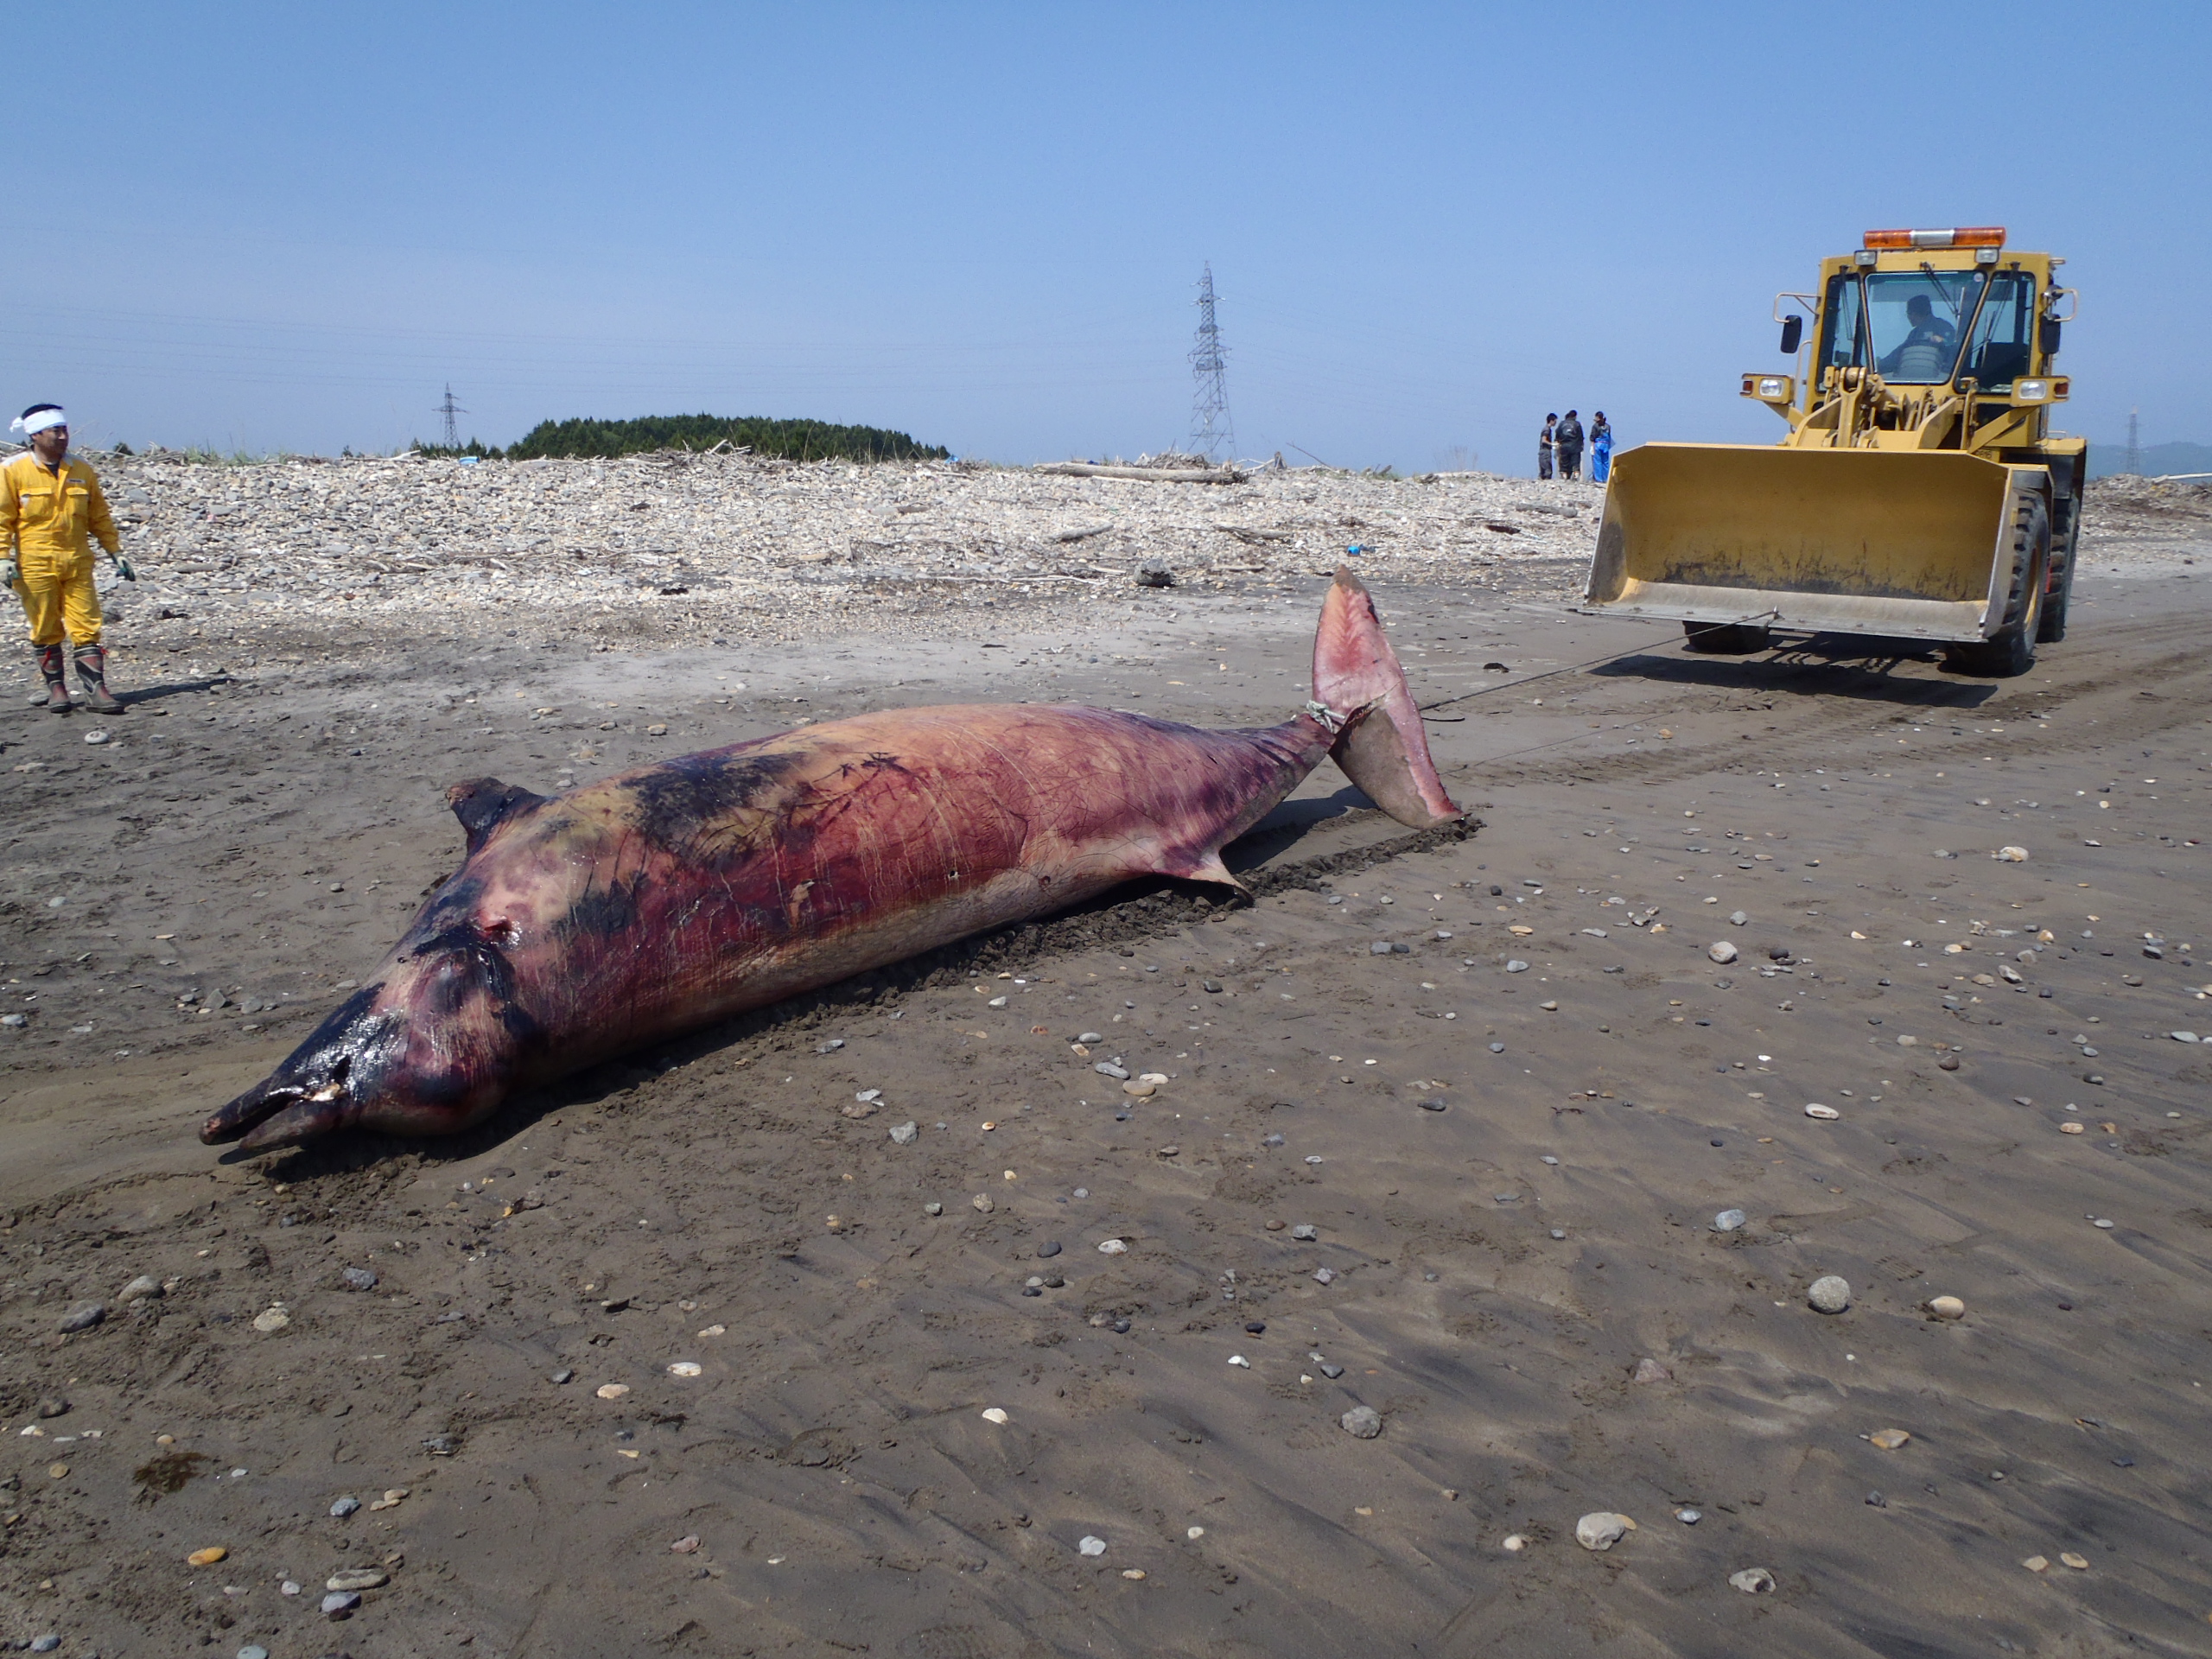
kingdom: Animalia
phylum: Chordata
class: Mammalia
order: Cetacea
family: Hyperoodontidae
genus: Mesoplodon
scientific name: Mesoplodon carlhubbsi
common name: Hubbs' beaked whale
